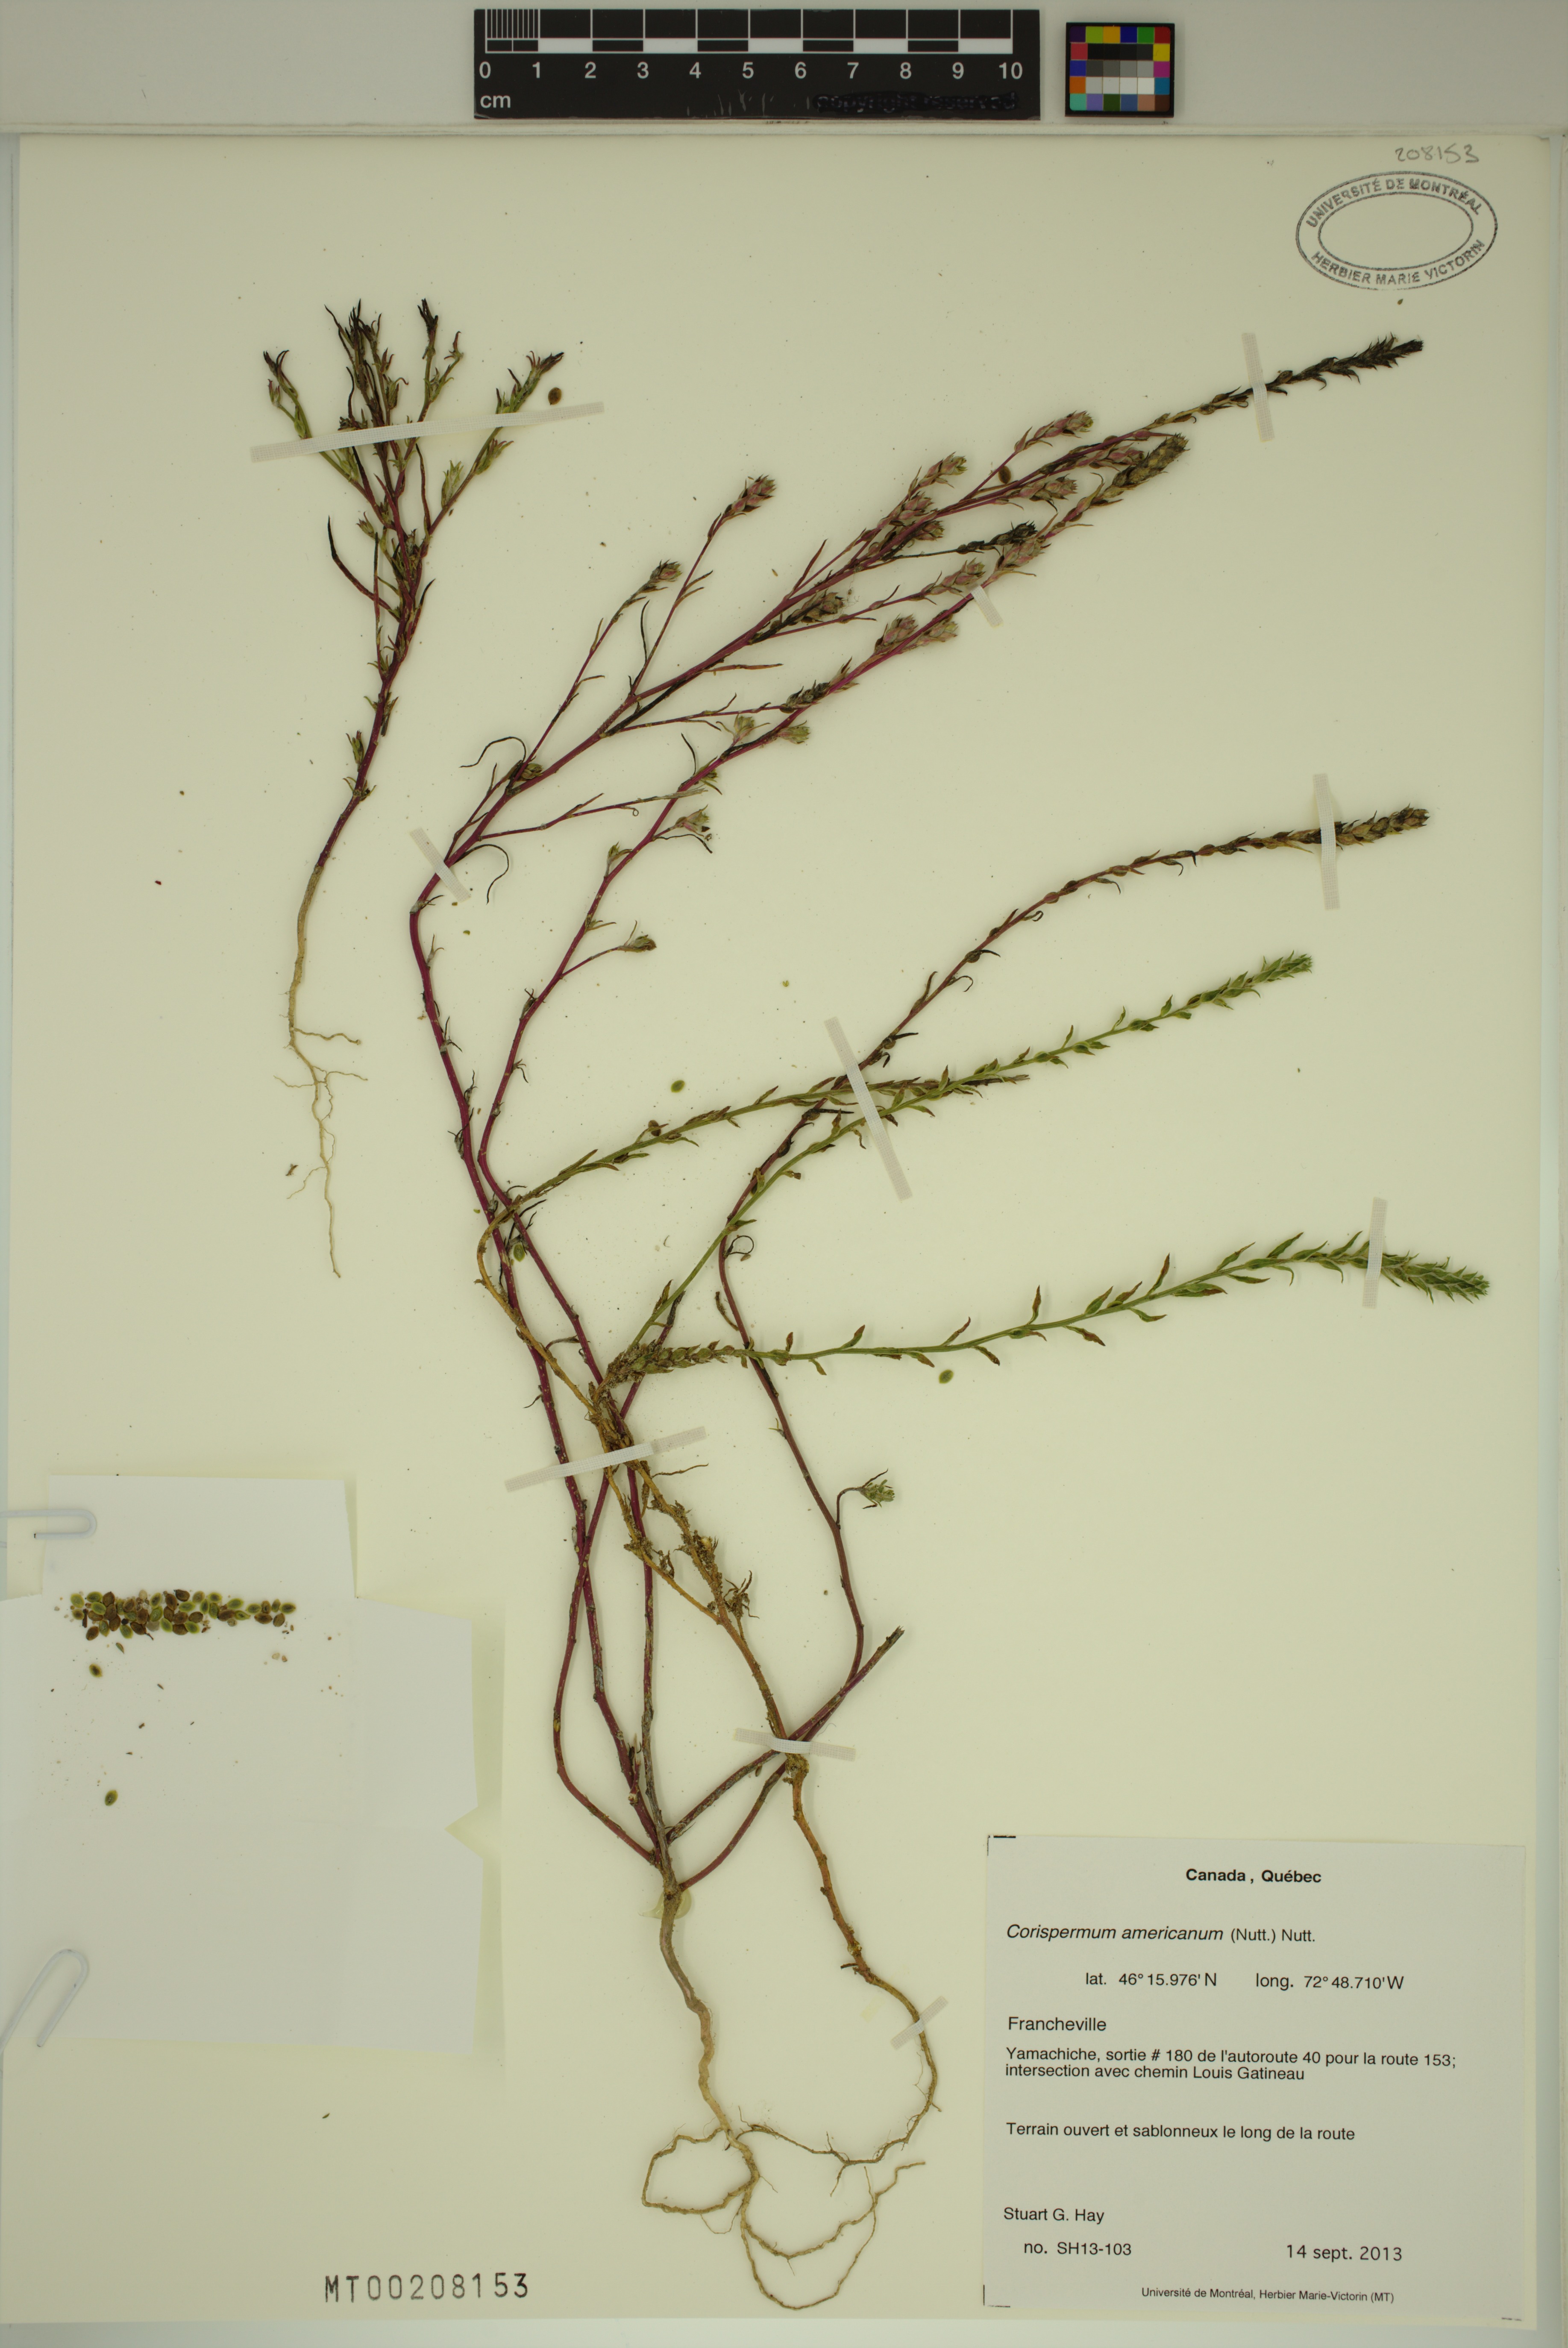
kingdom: Plantae
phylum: Tracheophyta
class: Magnoliopsida
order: Caryophyllales
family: Amaranthaceae
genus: Corispermum
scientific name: Corispermum americanum
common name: American bugseed
